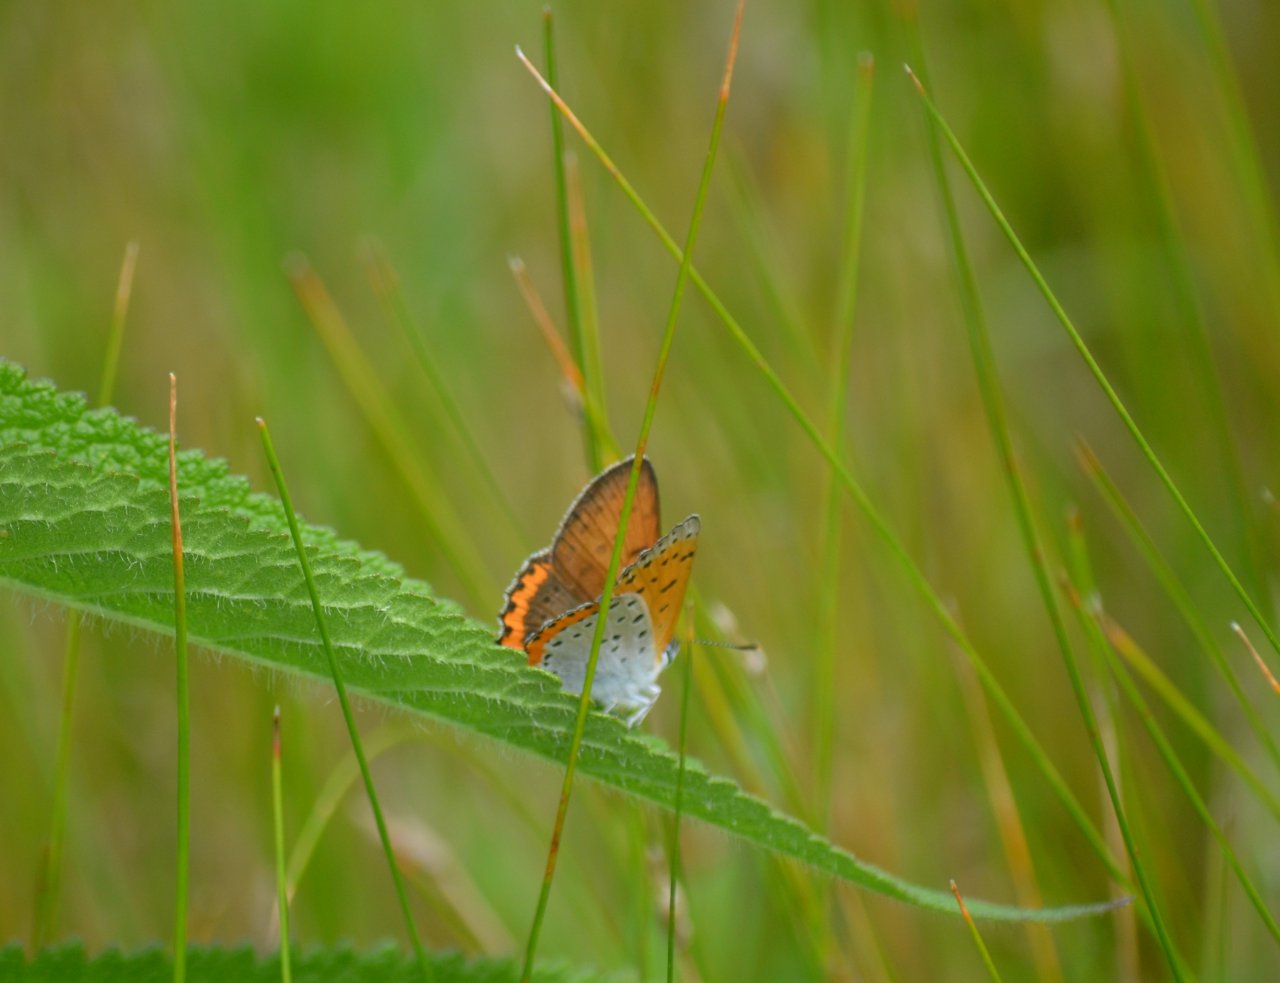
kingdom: Animalia
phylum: Arthropoda
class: Insecta
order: Lepidoptera
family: Sesiidae
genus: Sesia
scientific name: Sesia Lycaena hyllus
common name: Bronze Copper
